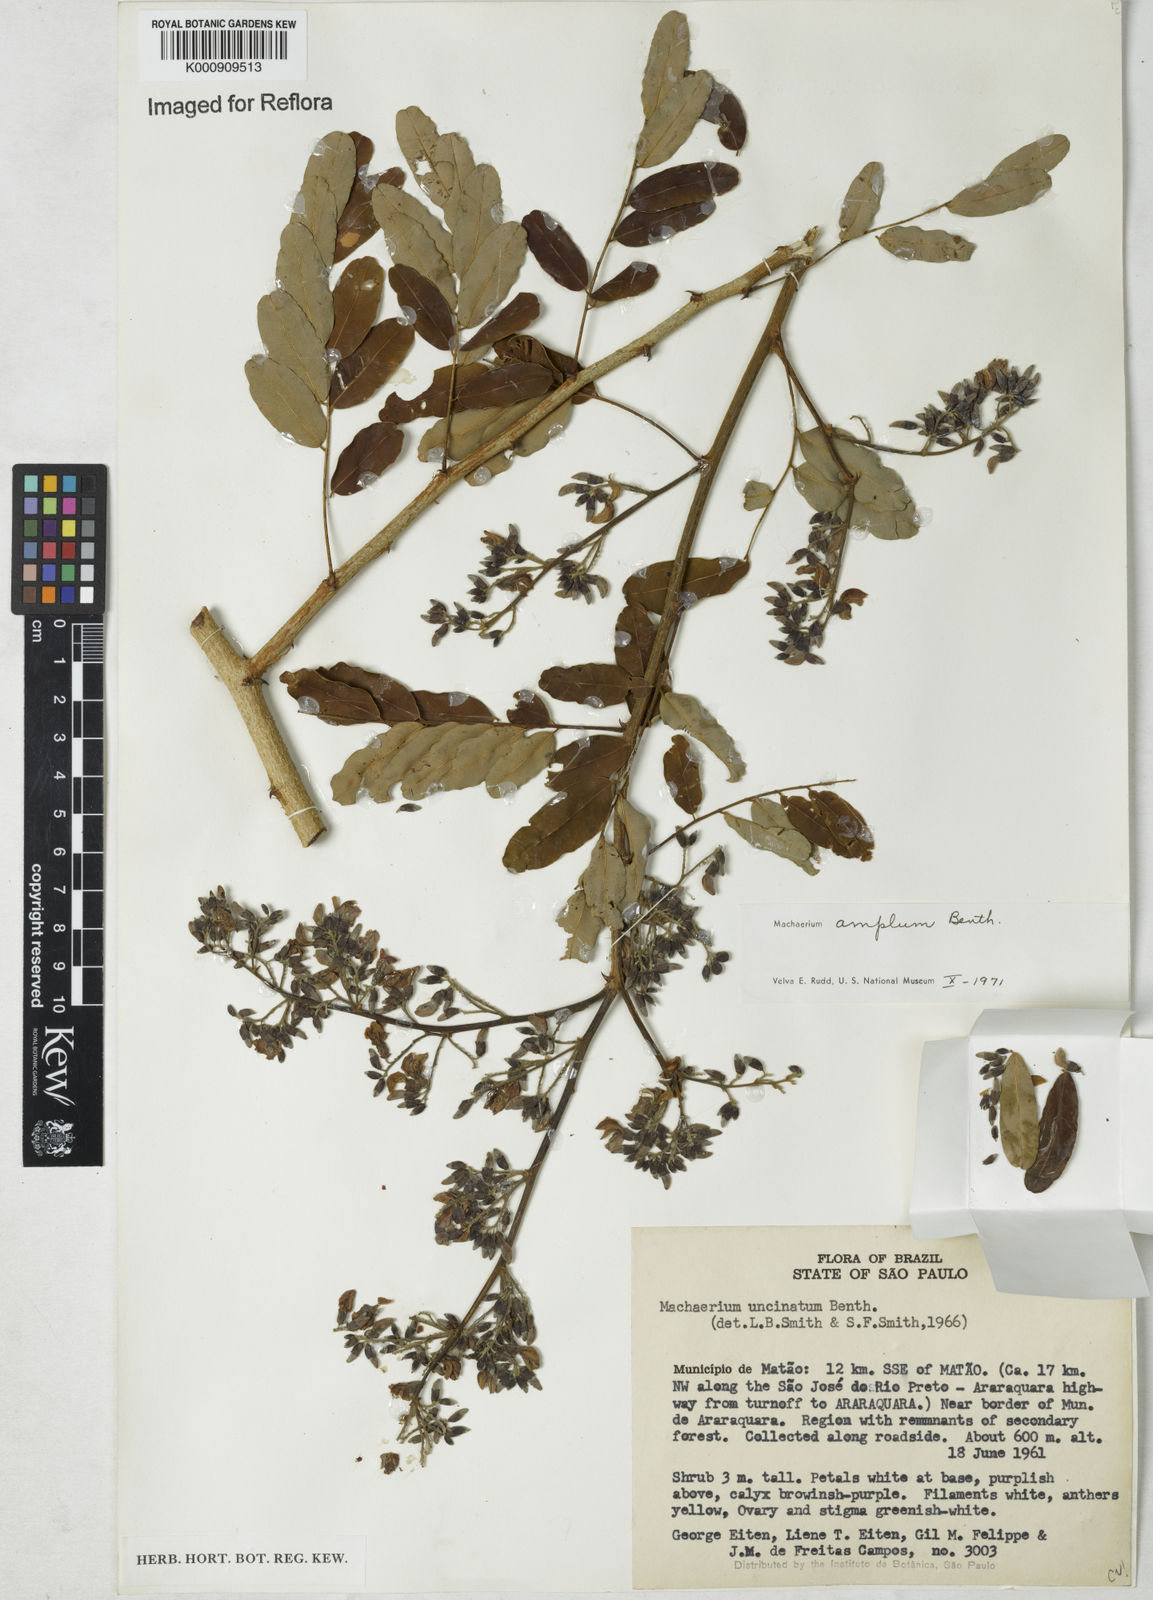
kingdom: Plantae
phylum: Tracheophyta
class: Magnoliopsida
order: Fabales
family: Fabaceae
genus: Machaerium
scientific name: Machaerium amplum
